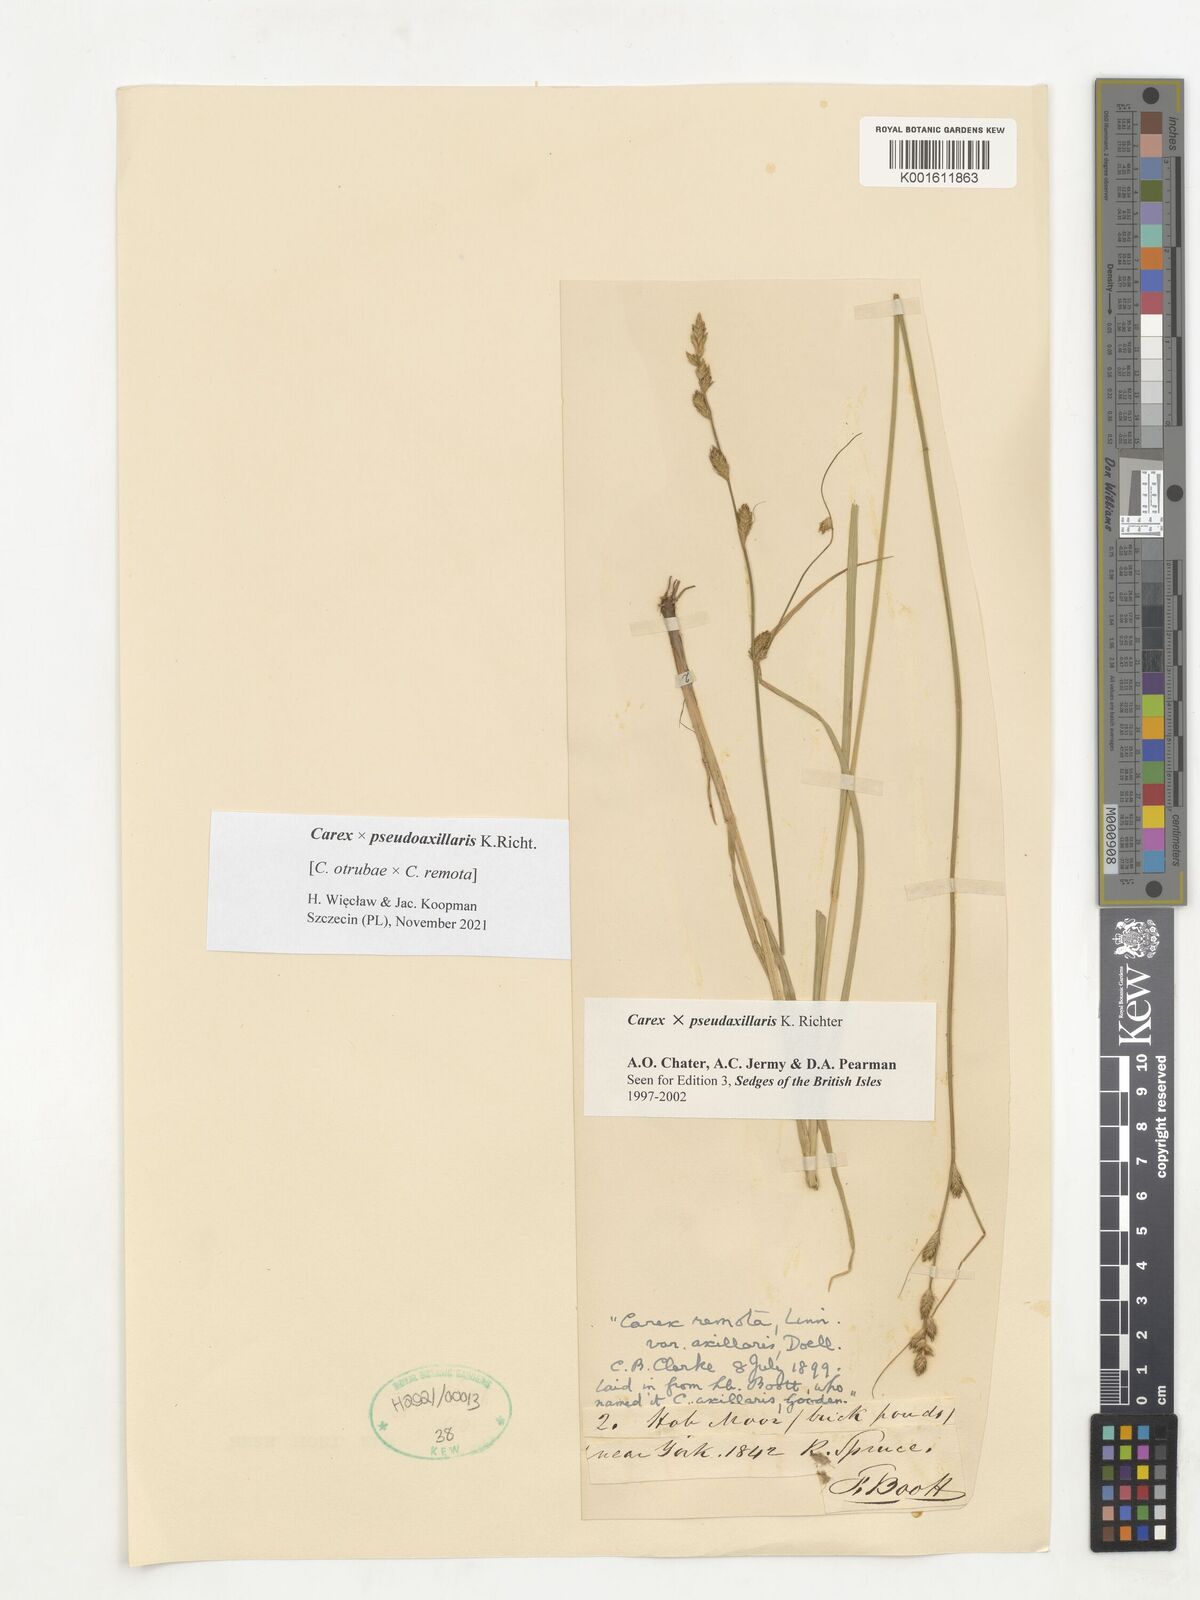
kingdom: Plantae
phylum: Tracheophyta
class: Liliopsida
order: Poales
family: Cyperaceae
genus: Carex
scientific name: Carex pseudoaxillaris
